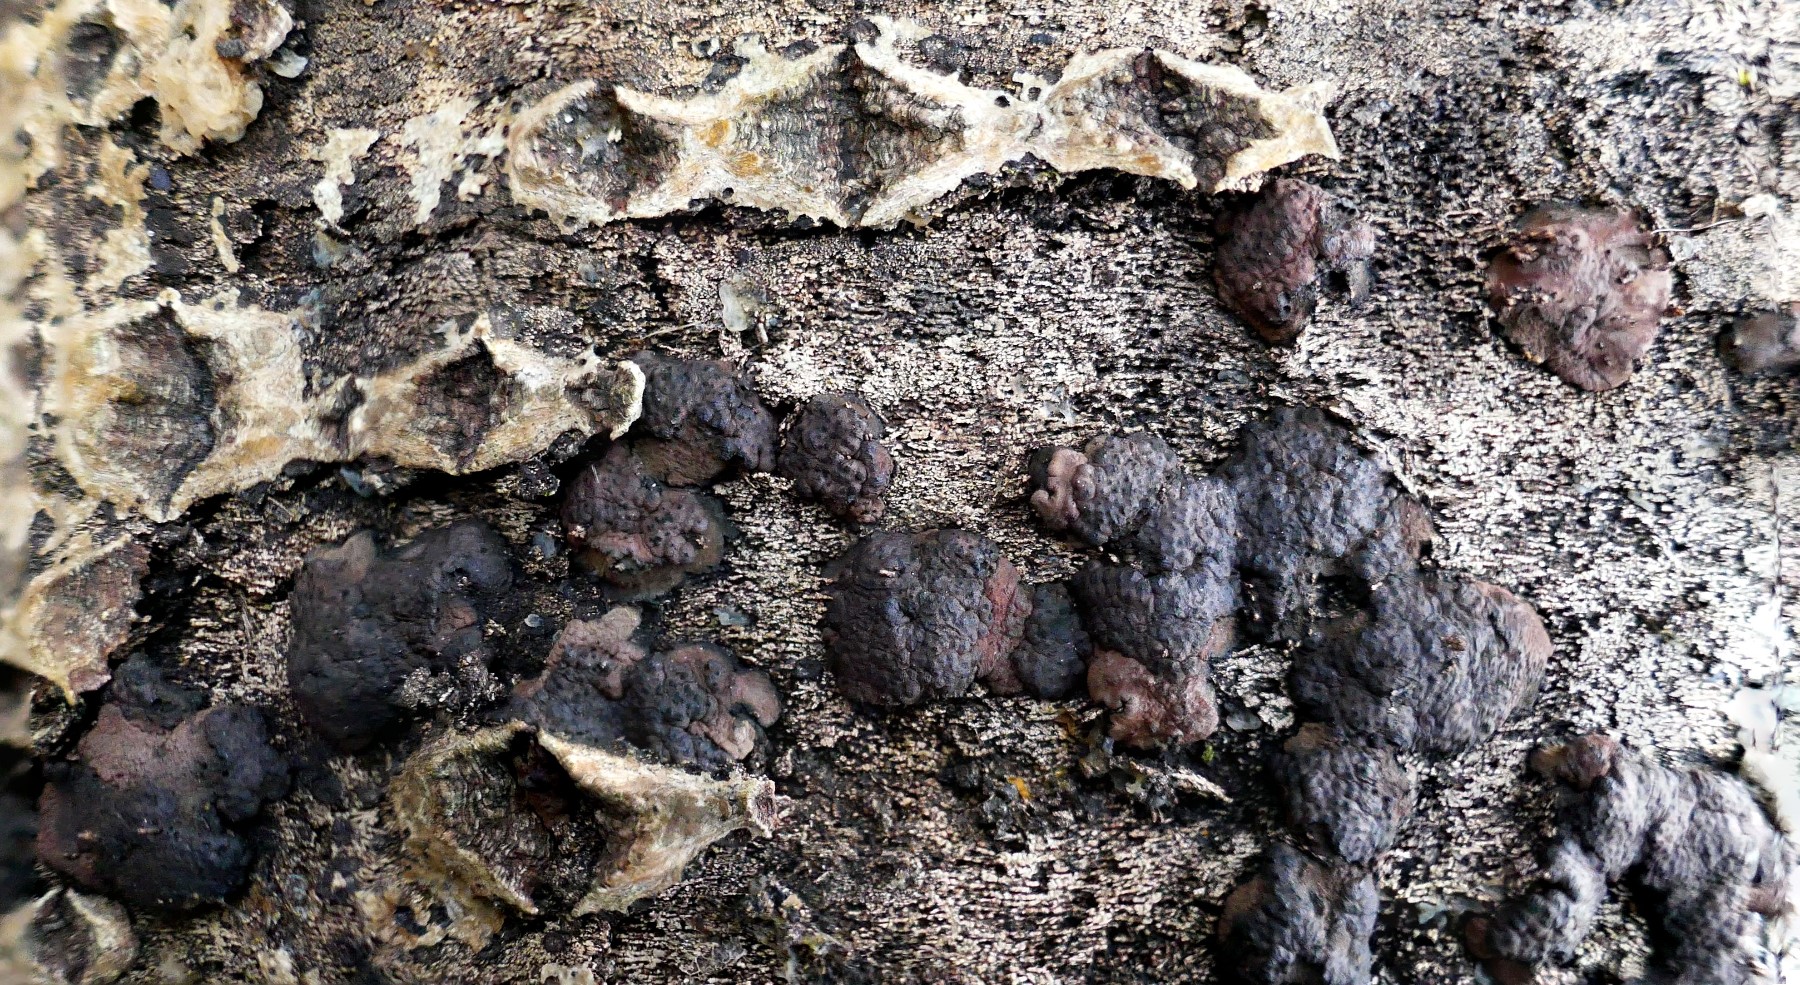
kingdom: Fungi
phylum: Ascomycota
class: Sordariomycetes
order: Xylariales
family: Hypoxylaceae
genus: Jackrogersella
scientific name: Jackrogersella multiformis
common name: foranderlig kulbær
